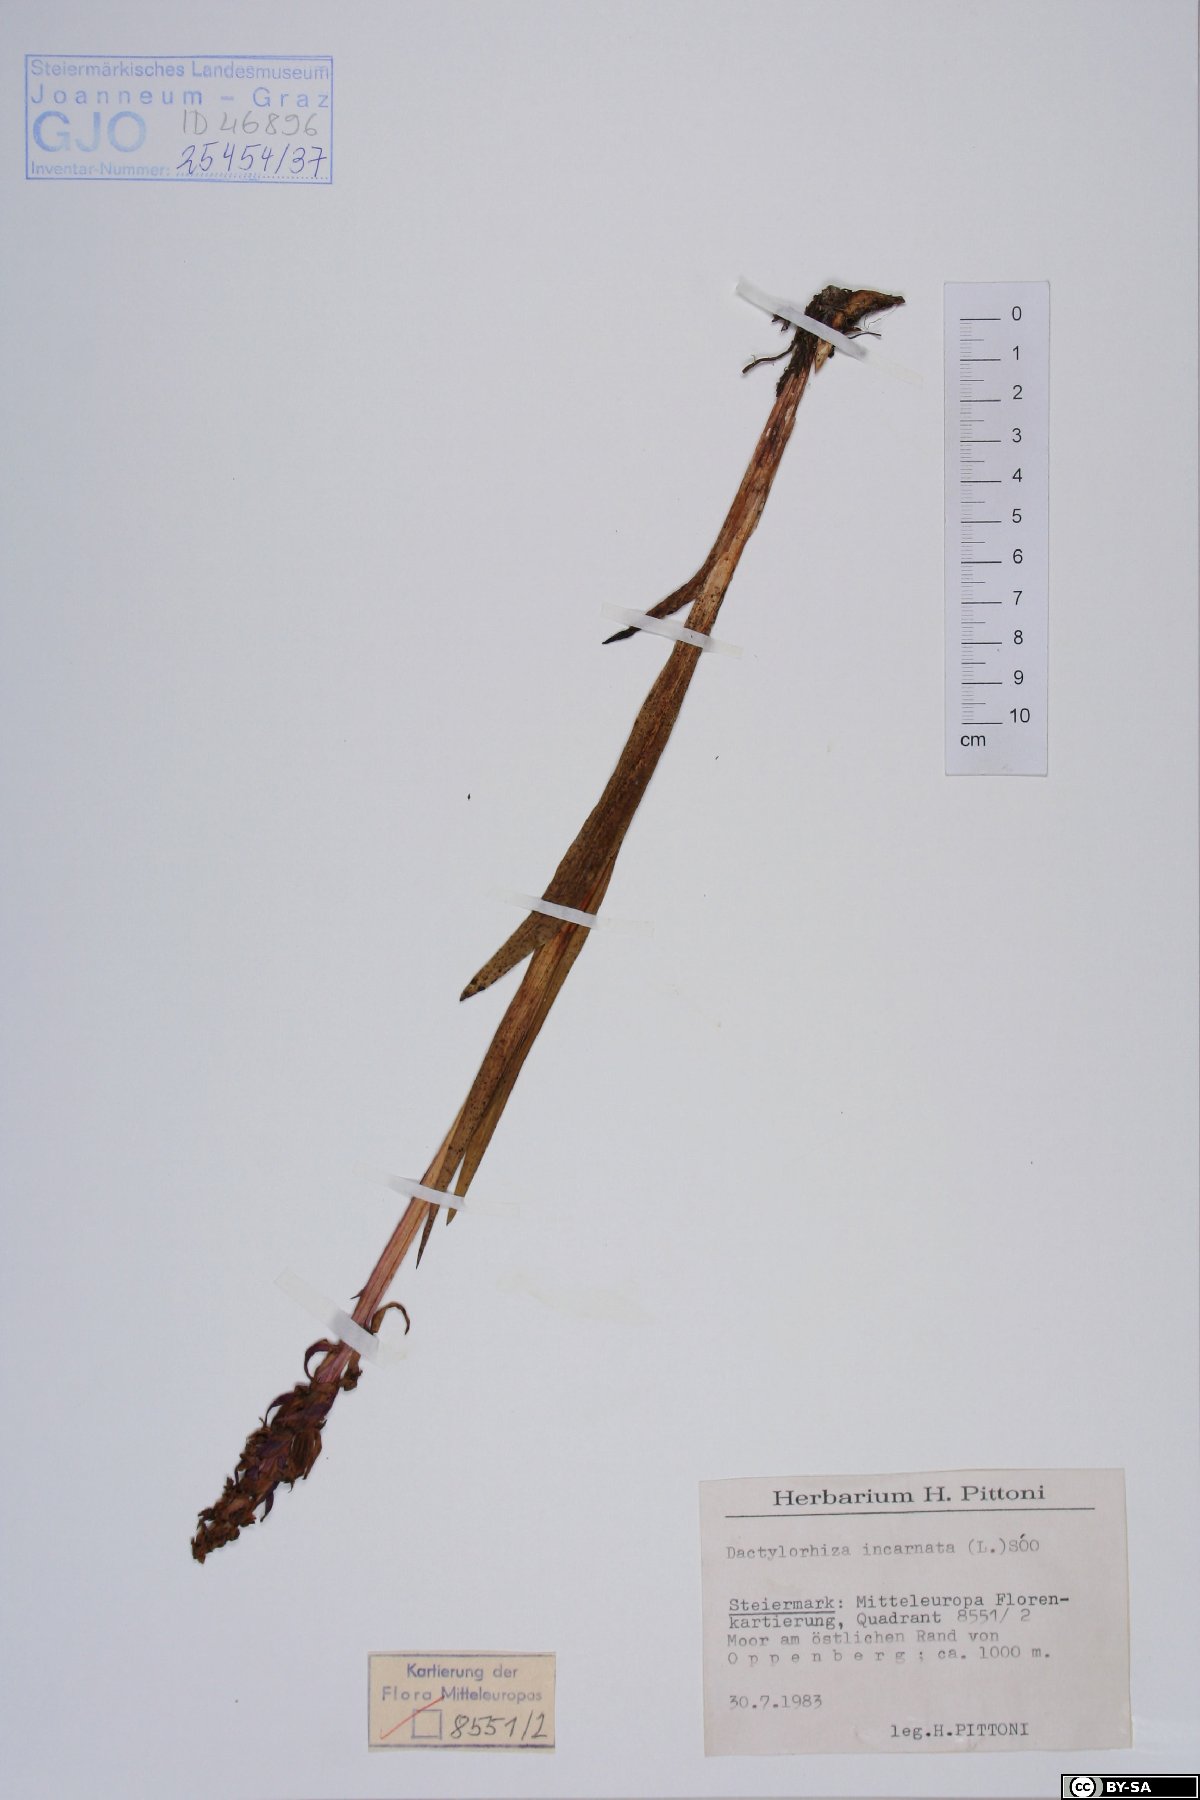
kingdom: Plantae
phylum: Tracheophyta
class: Liliopsida
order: Asparagales
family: Orchidaceae
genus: Dactylorhiza
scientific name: Dactylorhiza incarnata
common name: Early marsh-orchid
